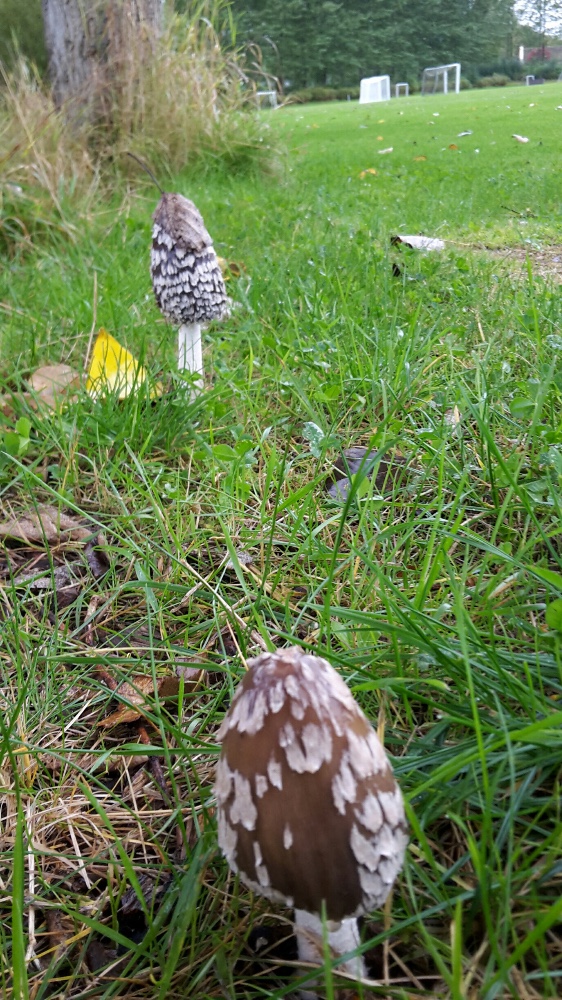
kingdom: Fungi
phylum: Basidiomycota
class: Agaricomycetes
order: Agaricales
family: Psathyrellaceae
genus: Coprinopsis
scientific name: Coprinopsis picacea
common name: skade-blækhat
